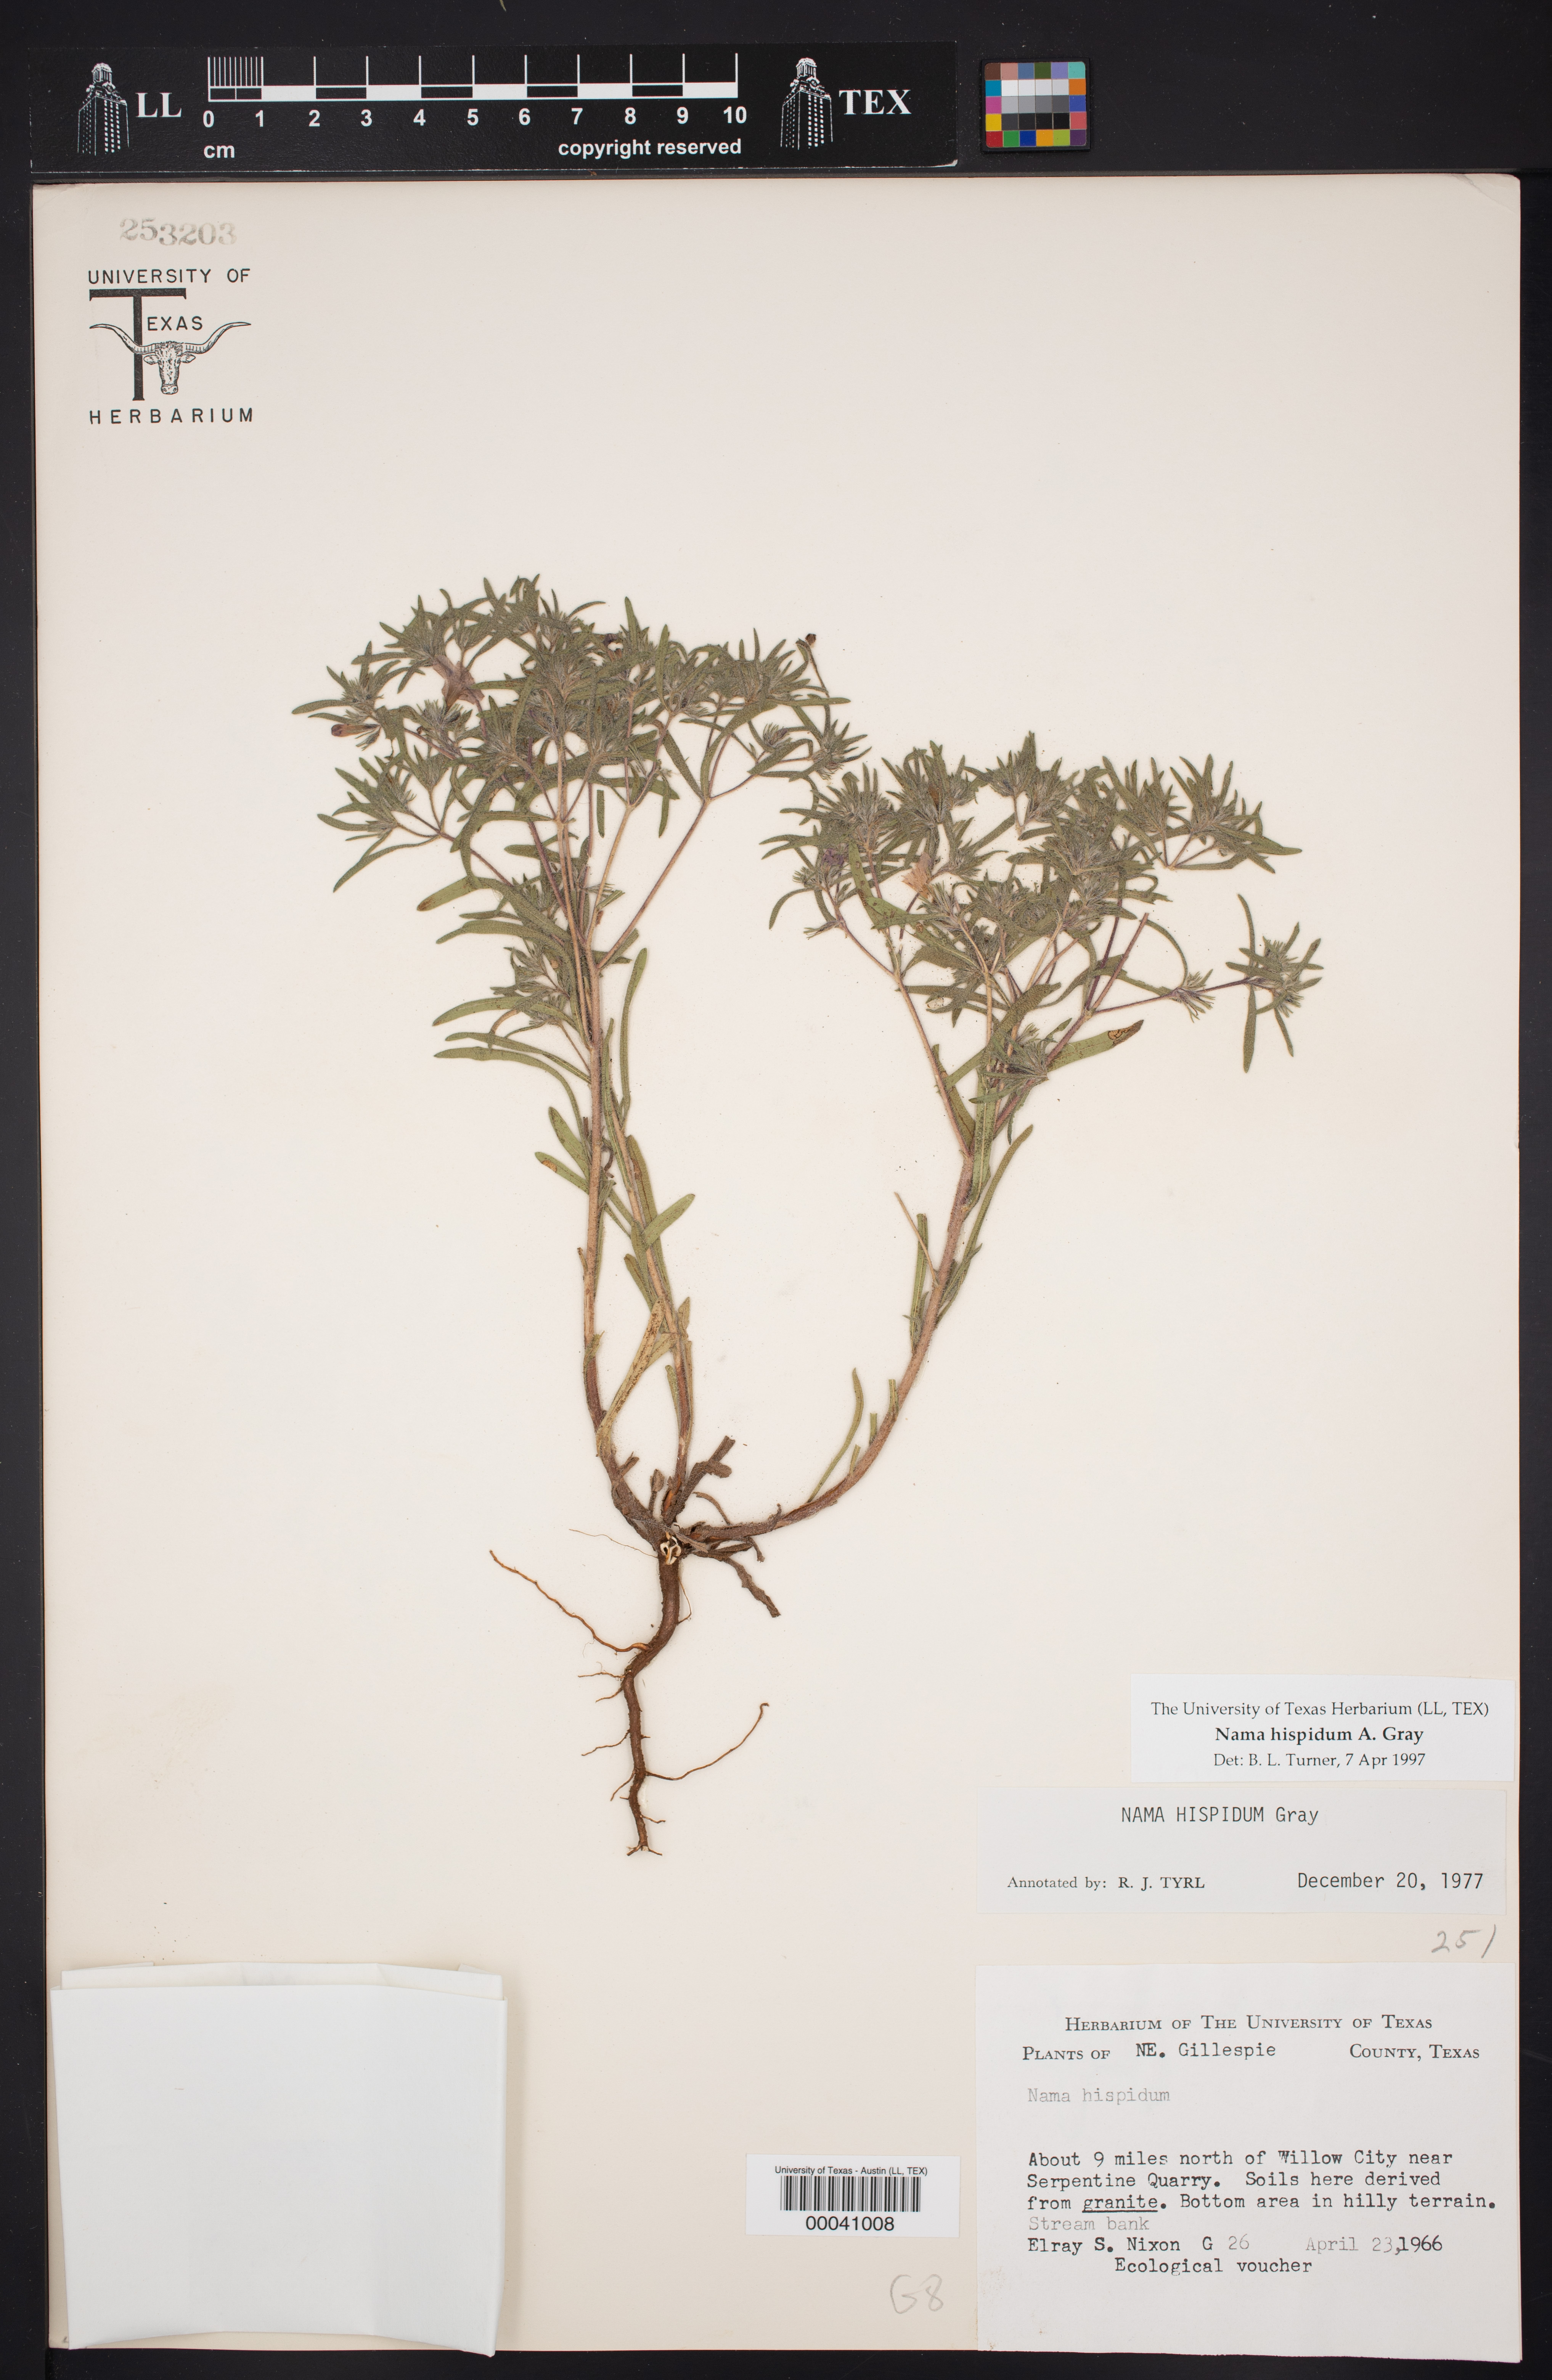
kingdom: Plantae
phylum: Tracheophyta
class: Magnoliopsida
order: Boraginales
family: Namaceae
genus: Nama
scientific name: Nama hispida
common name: Bristly nama
